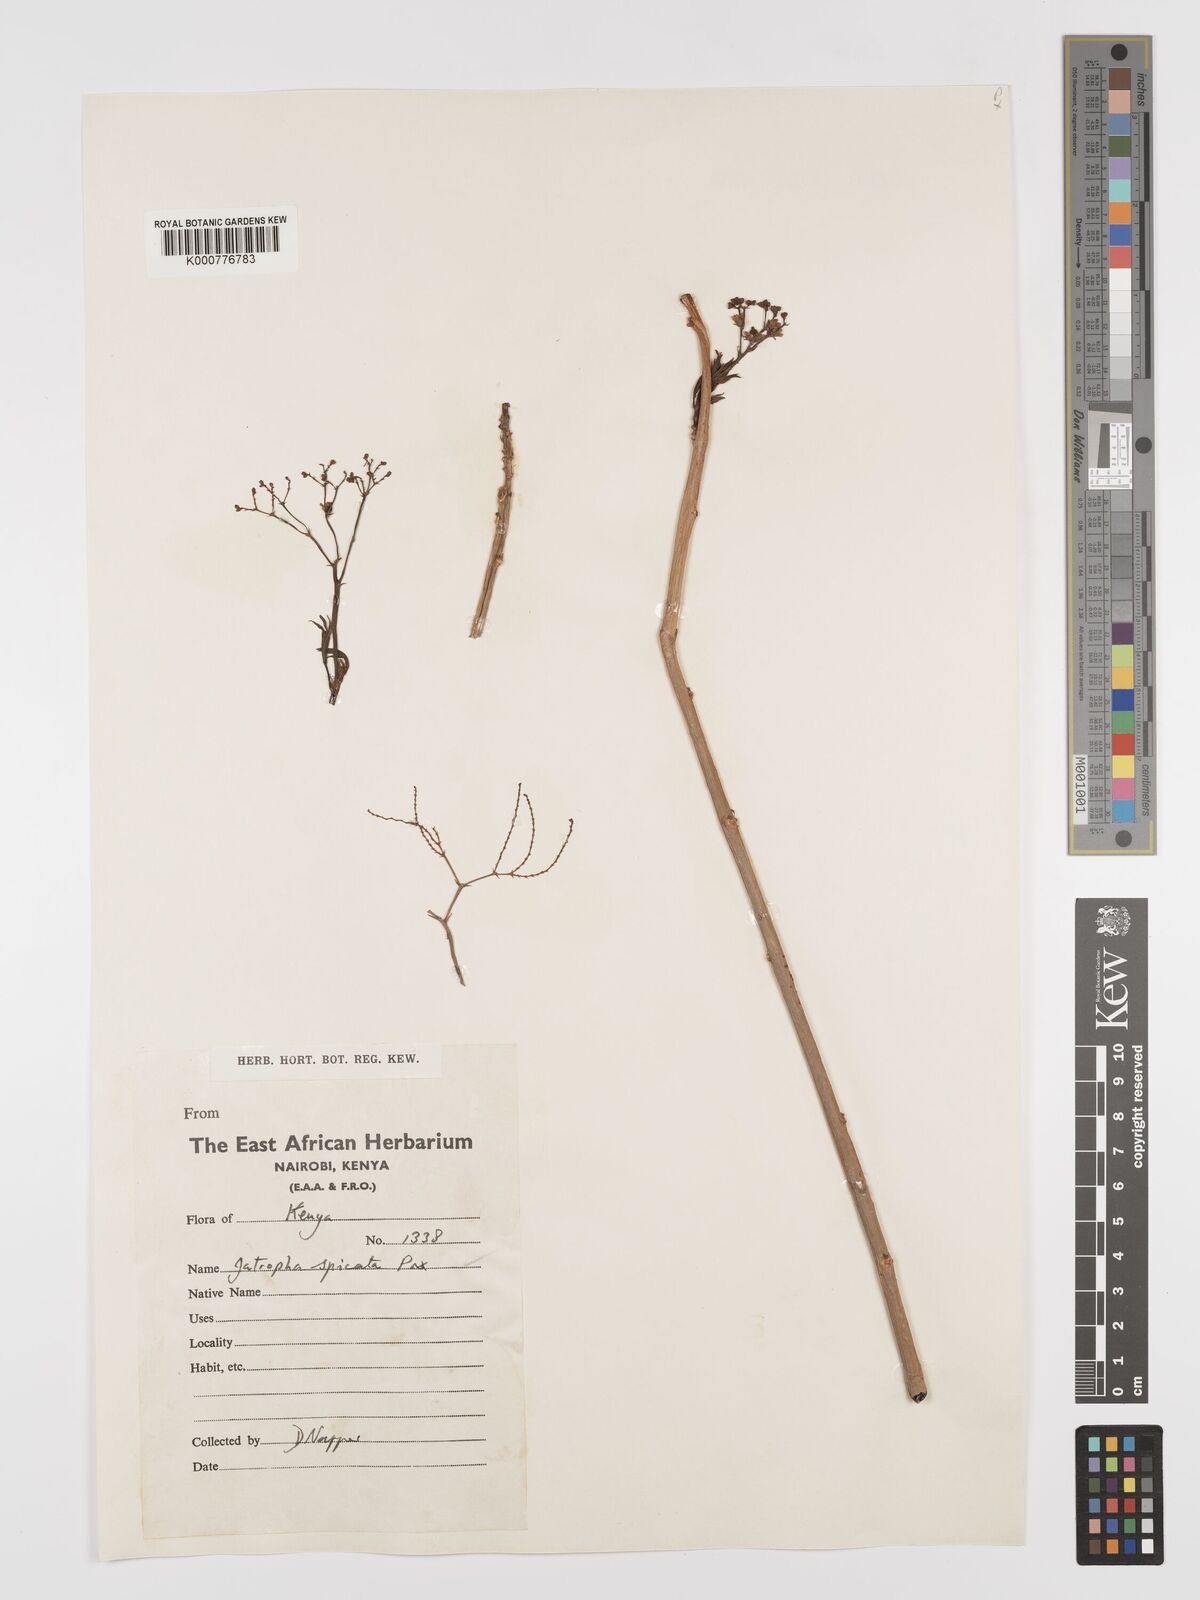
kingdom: Plantae
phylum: Tracheophyta
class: Magnoliopsida
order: Malpighiales
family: Euphorbiaceae
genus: Jatropha
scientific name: Jatropha spicata
